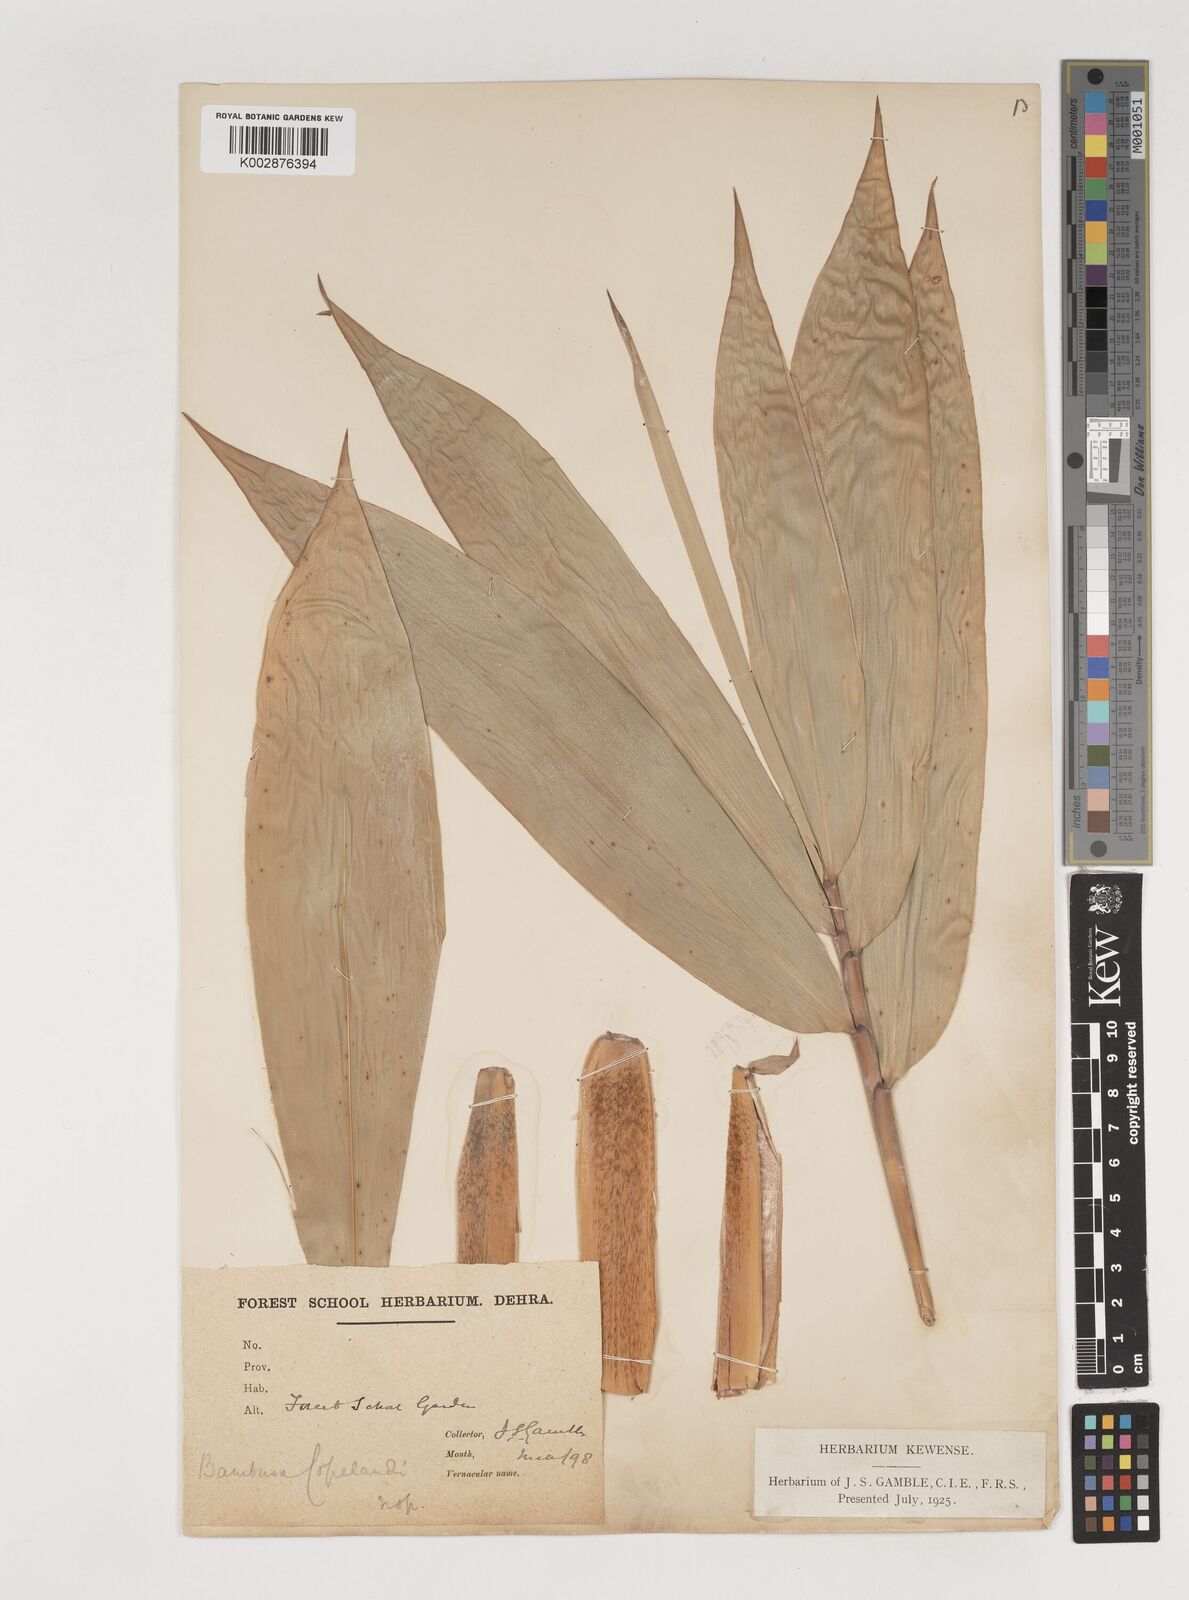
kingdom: Plantae
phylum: Tracheophyta
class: Liliopsida
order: Poales
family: Poaceae
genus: Bambusa
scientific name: Bambusa copelandii
